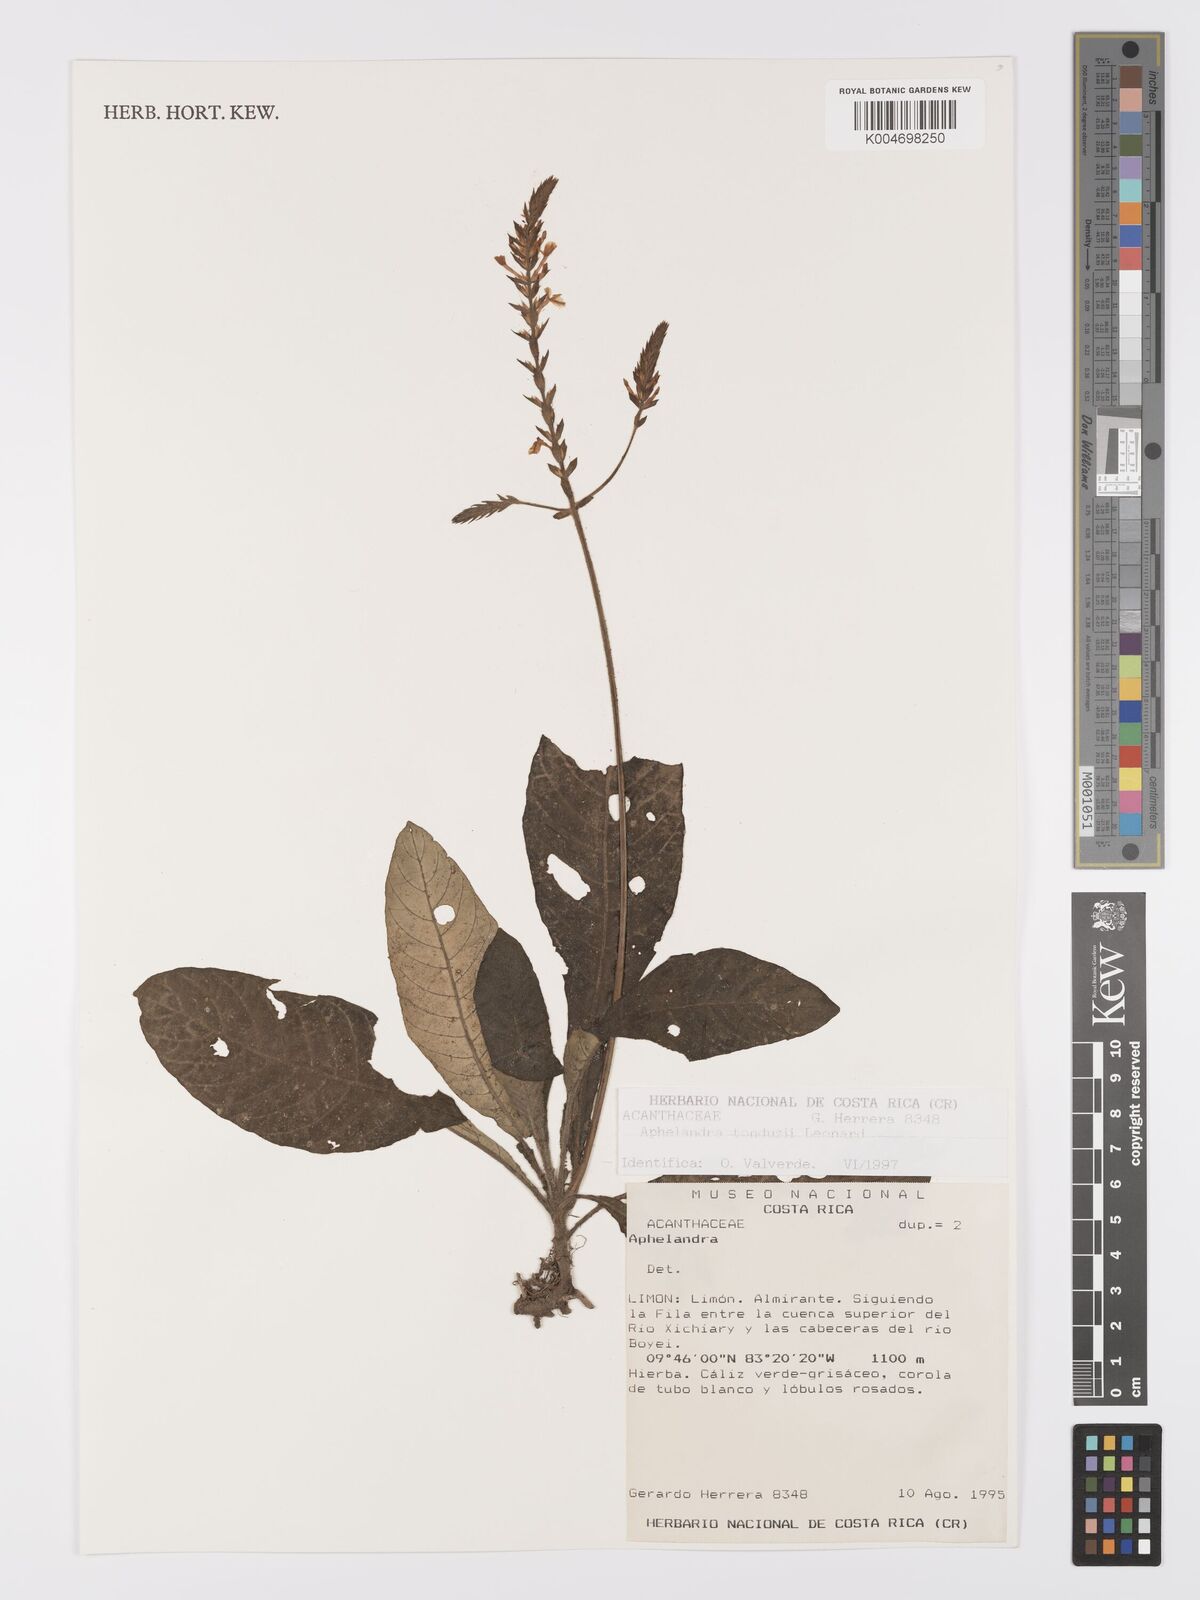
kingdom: Plantae
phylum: Tracheophyta
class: Magnoliopsida
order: Lamiales
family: Acanthaceae
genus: Aphelandra
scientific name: Aphelandra tonduzii
